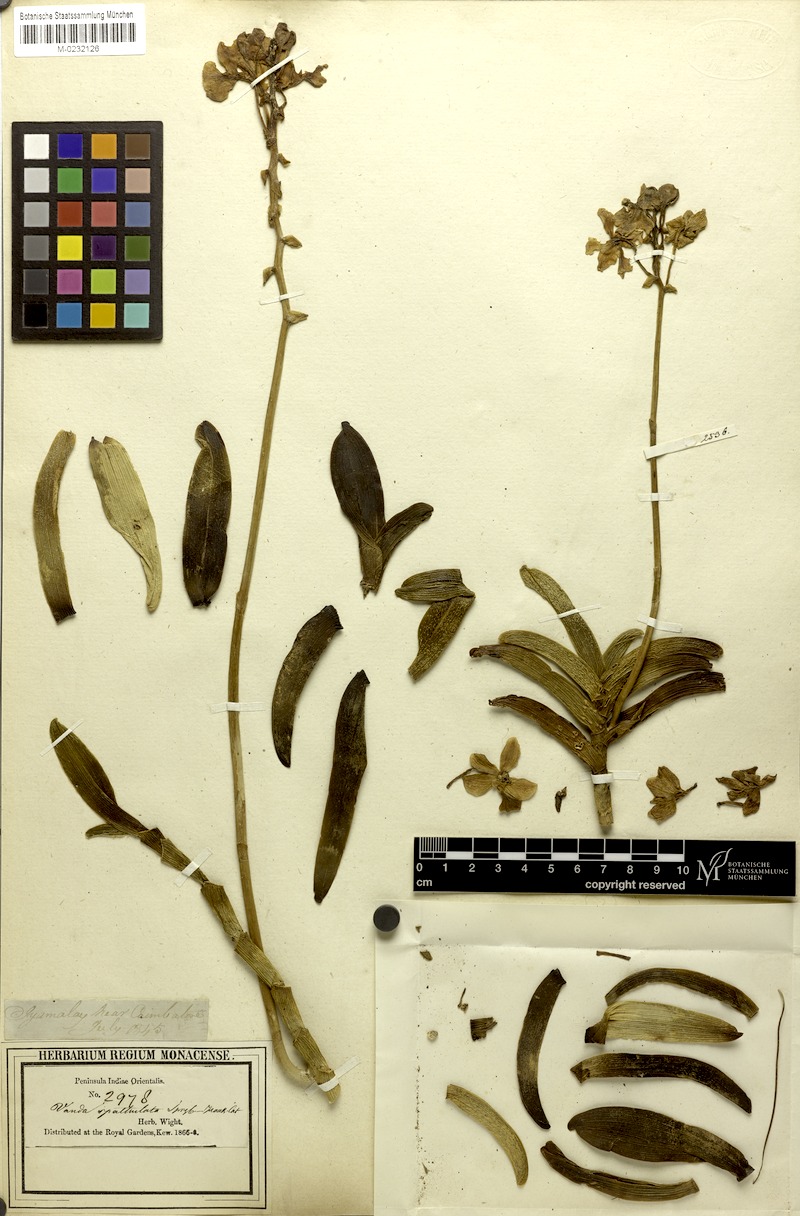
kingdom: Plantae
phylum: Tracheophyta
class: Liliopsida
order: Asparagales
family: Orchidaceae
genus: Taprobanea
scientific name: Taprobanea spathulata
